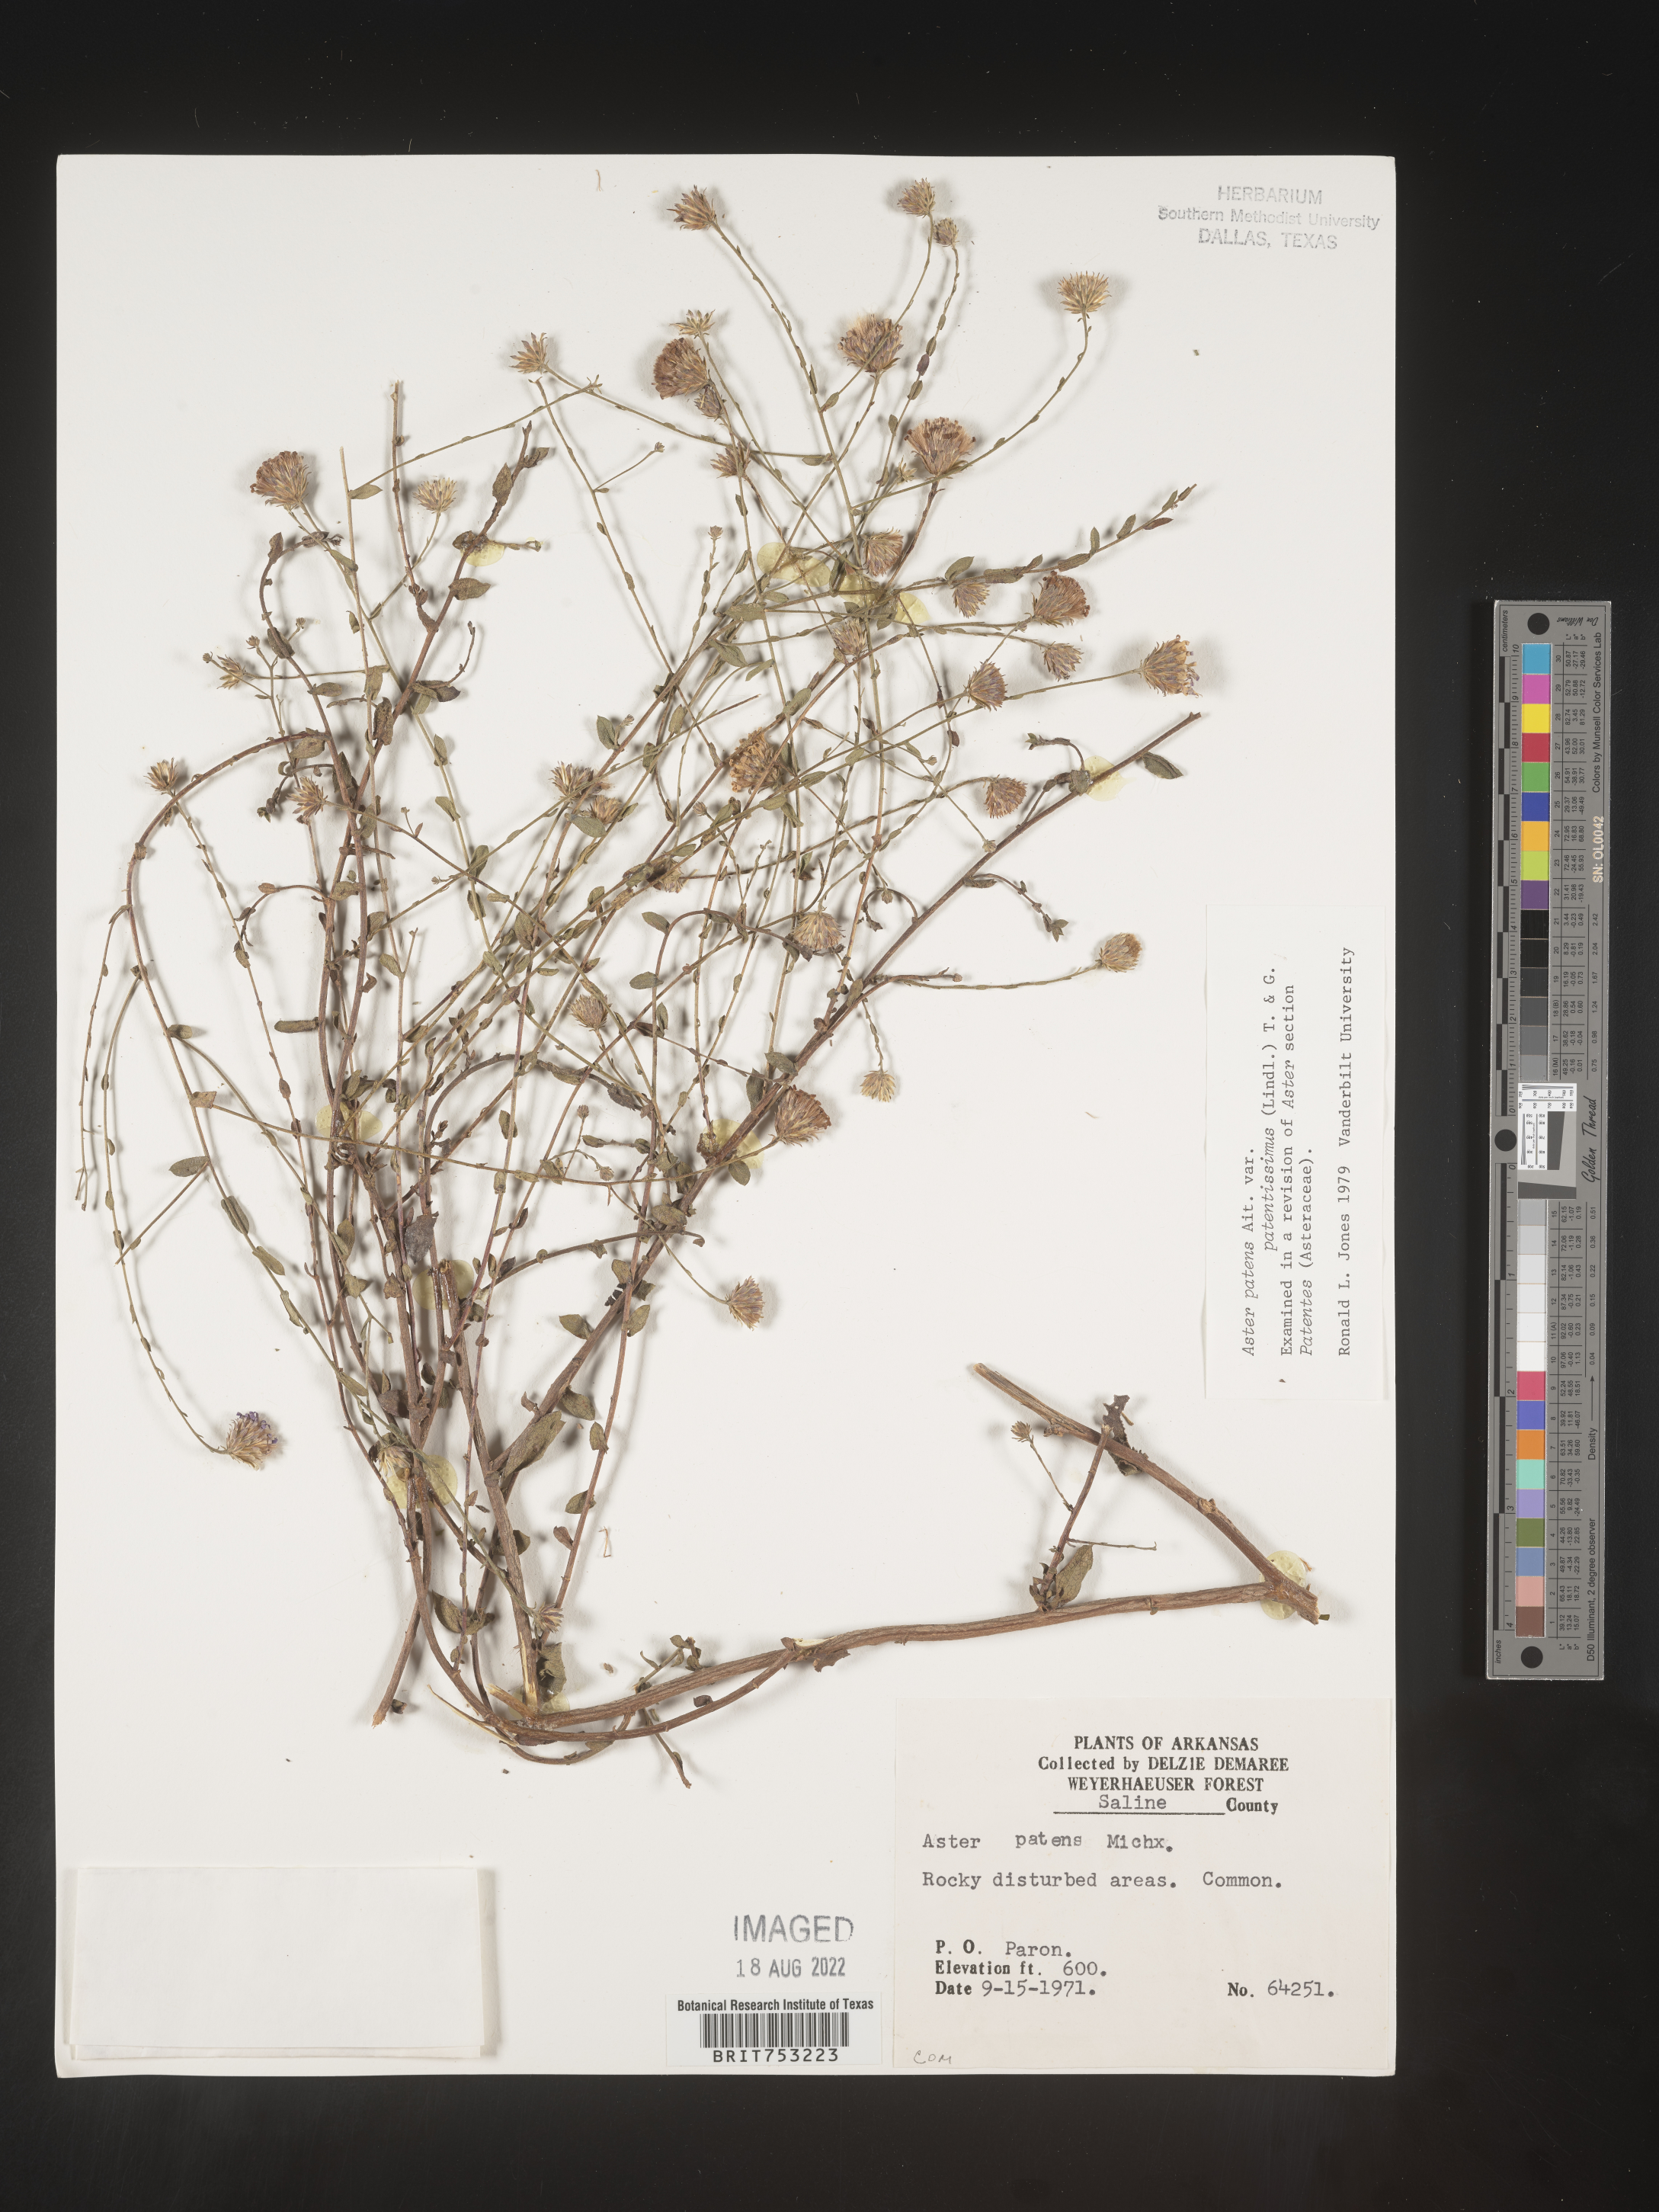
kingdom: Plantae
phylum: Tracheophyta
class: Magnoliopsida
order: Asterales
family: Asteraceae
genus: Symphyotrichum
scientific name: Symphyotrichum patens
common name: Late purple aster
